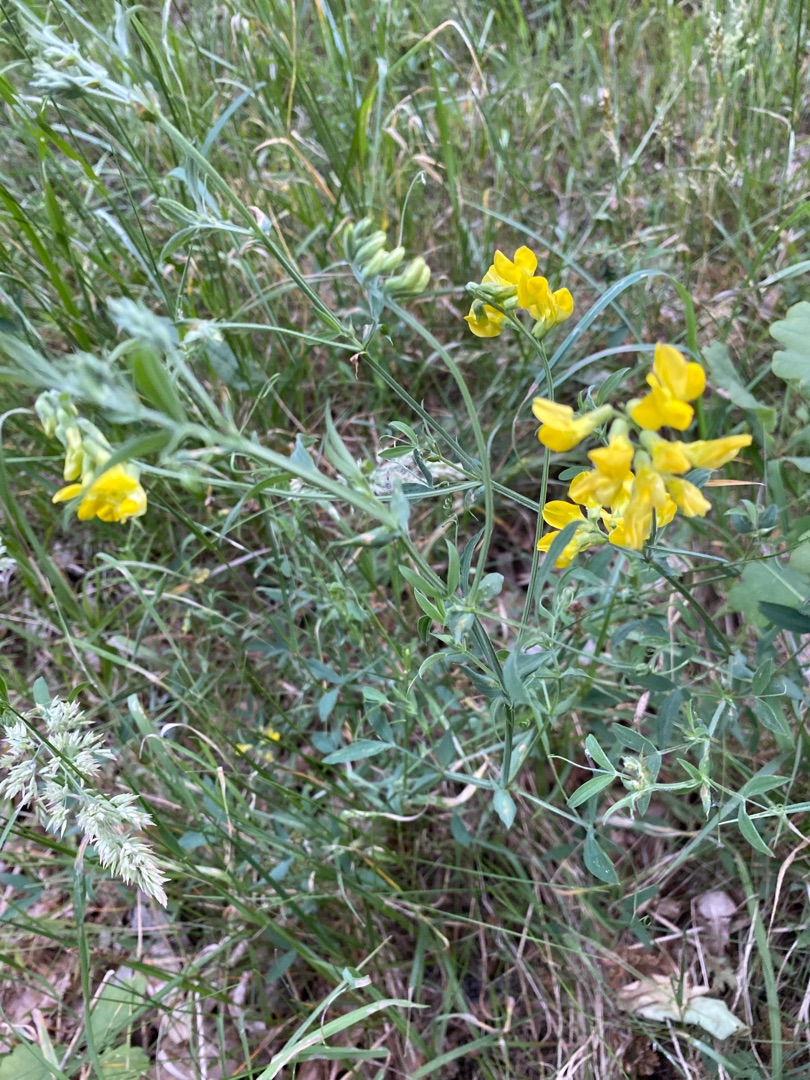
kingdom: Plantae
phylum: Tracheophyta
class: Magnoliopsida
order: Fabales
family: Fabaceae
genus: Lathyrus
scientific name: Lathyrus pratensis
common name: Gul fladbælg
